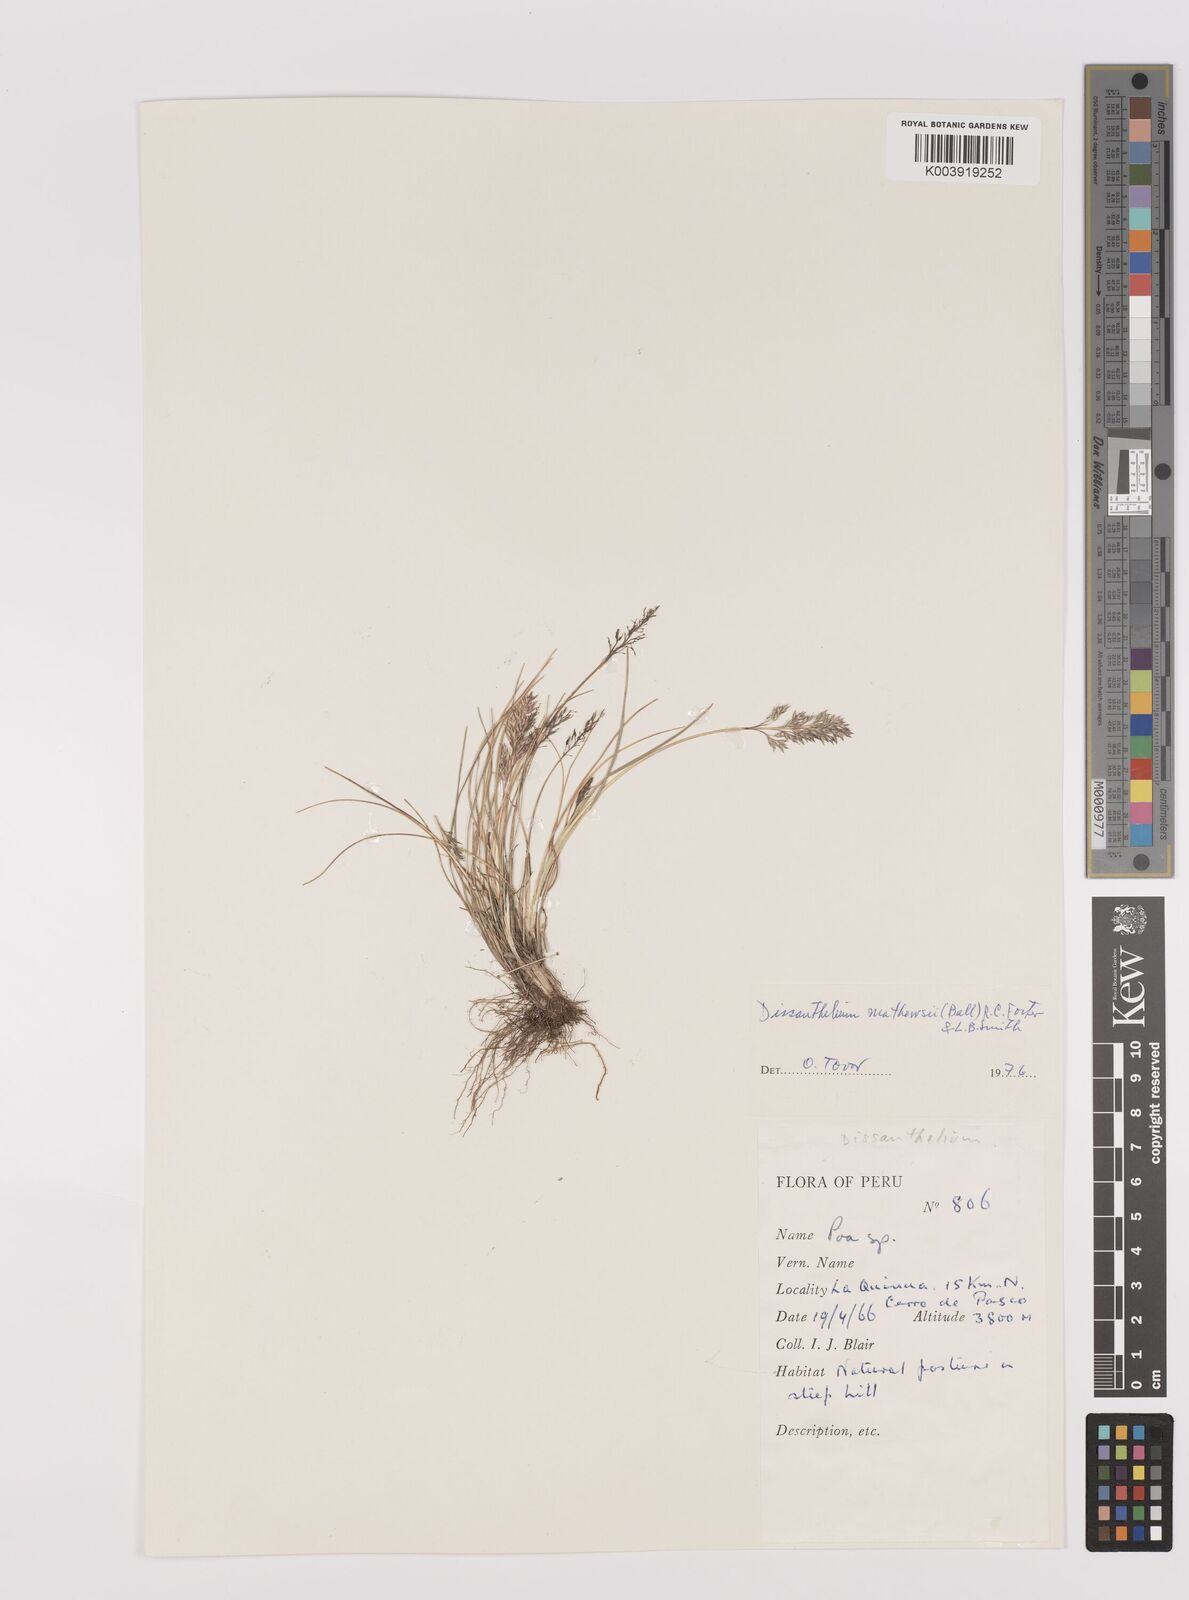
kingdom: Plantae
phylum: Tracheophyta
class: Liliopsida
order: Poales
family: Poaceae
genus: Poa
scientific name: Poa calycina
